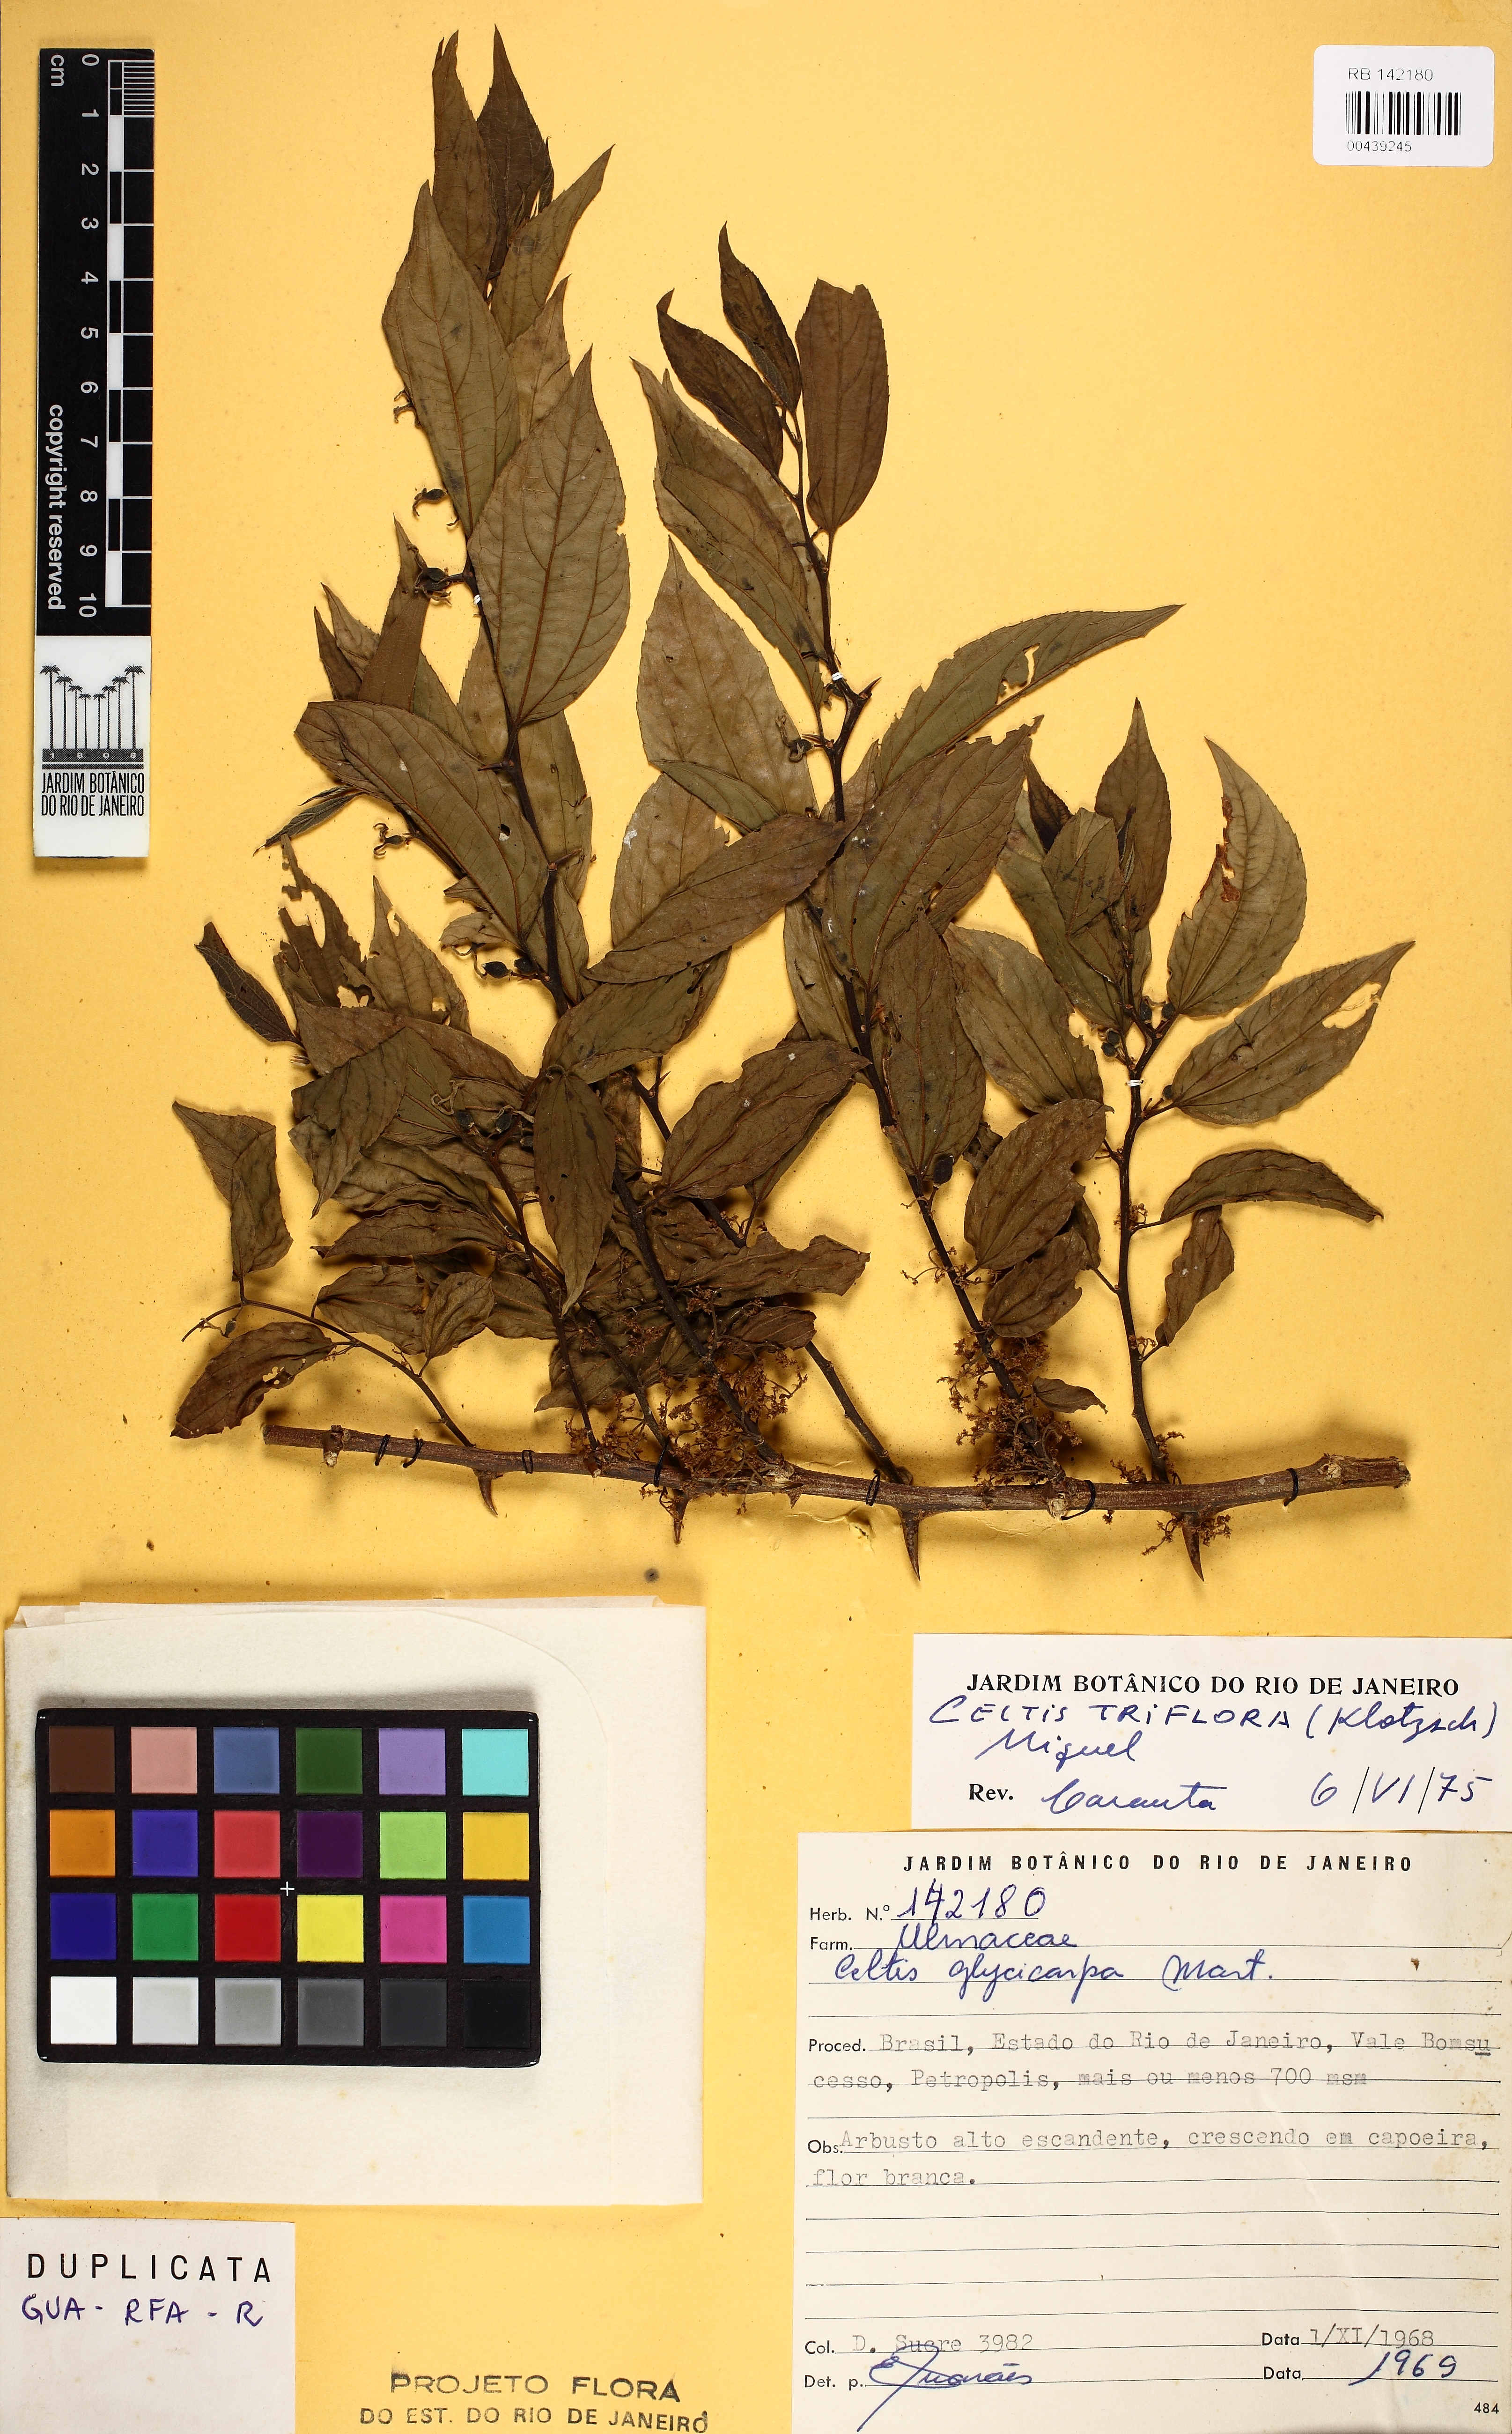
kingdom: Plantae
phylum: Tracheophyta
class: Magnoliopsida
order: Rosales
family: Cannabaceae
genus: Celtis
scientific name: Celtis iguanaea
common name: Iguana hackberry
